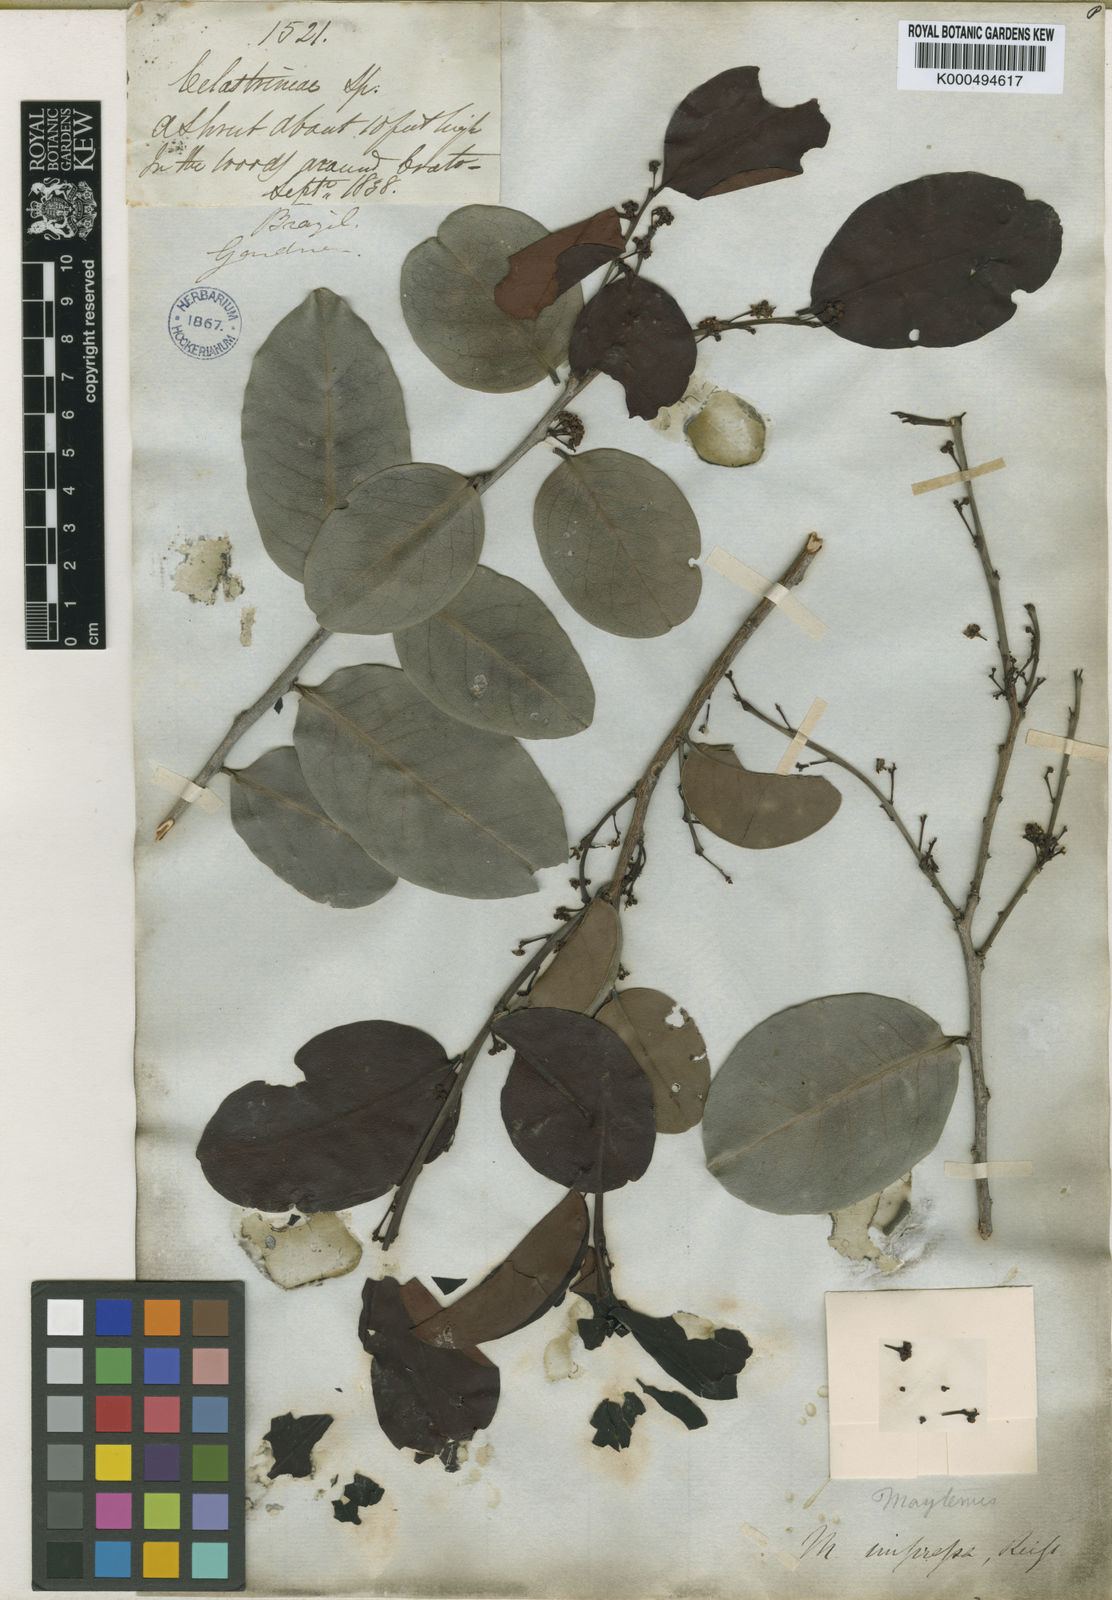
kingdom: Plantae
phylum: Tracheophyta
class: Magnoliopsida
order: Celastrales
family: Celastraceae
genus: Monteverdia
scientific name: Monteverdia obtusifolia
